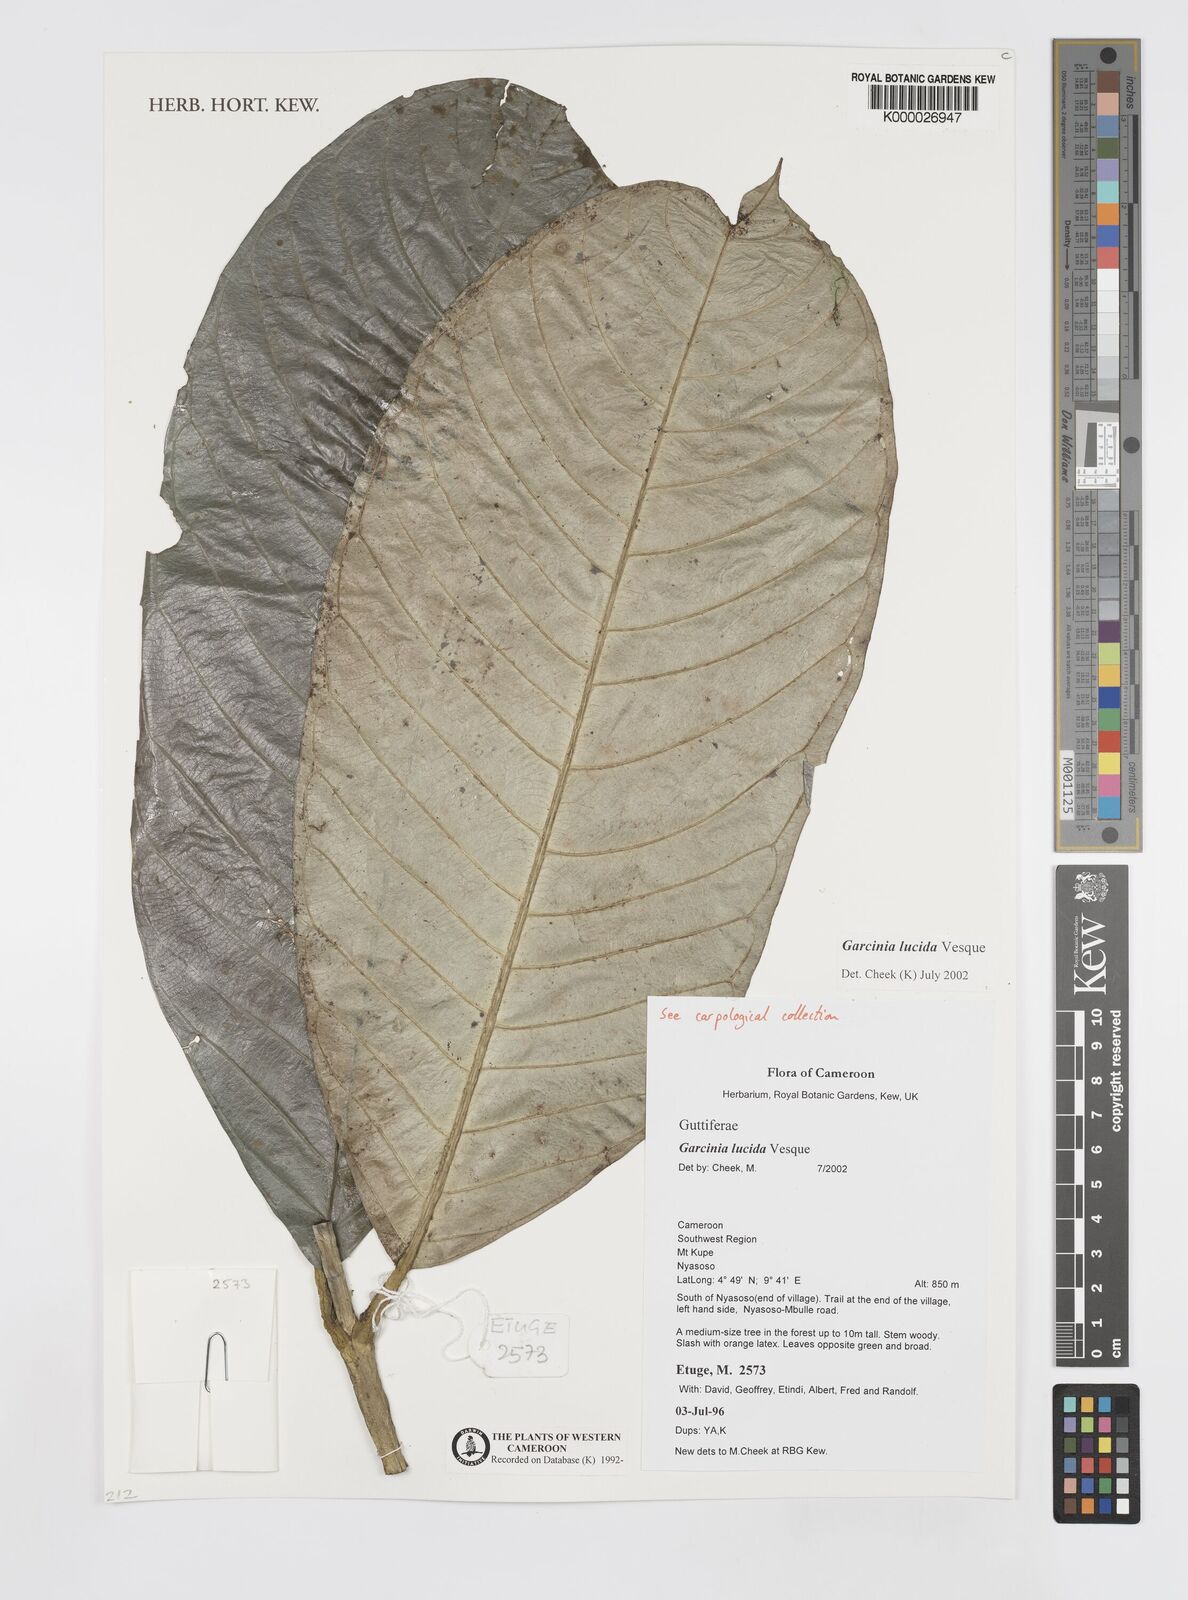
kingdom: Plantae
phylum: Tracheophyta
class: Magnoliopsida
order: Malpighiales
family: Clusiaceae
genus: Garcinia
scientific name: Garcinia lucida
